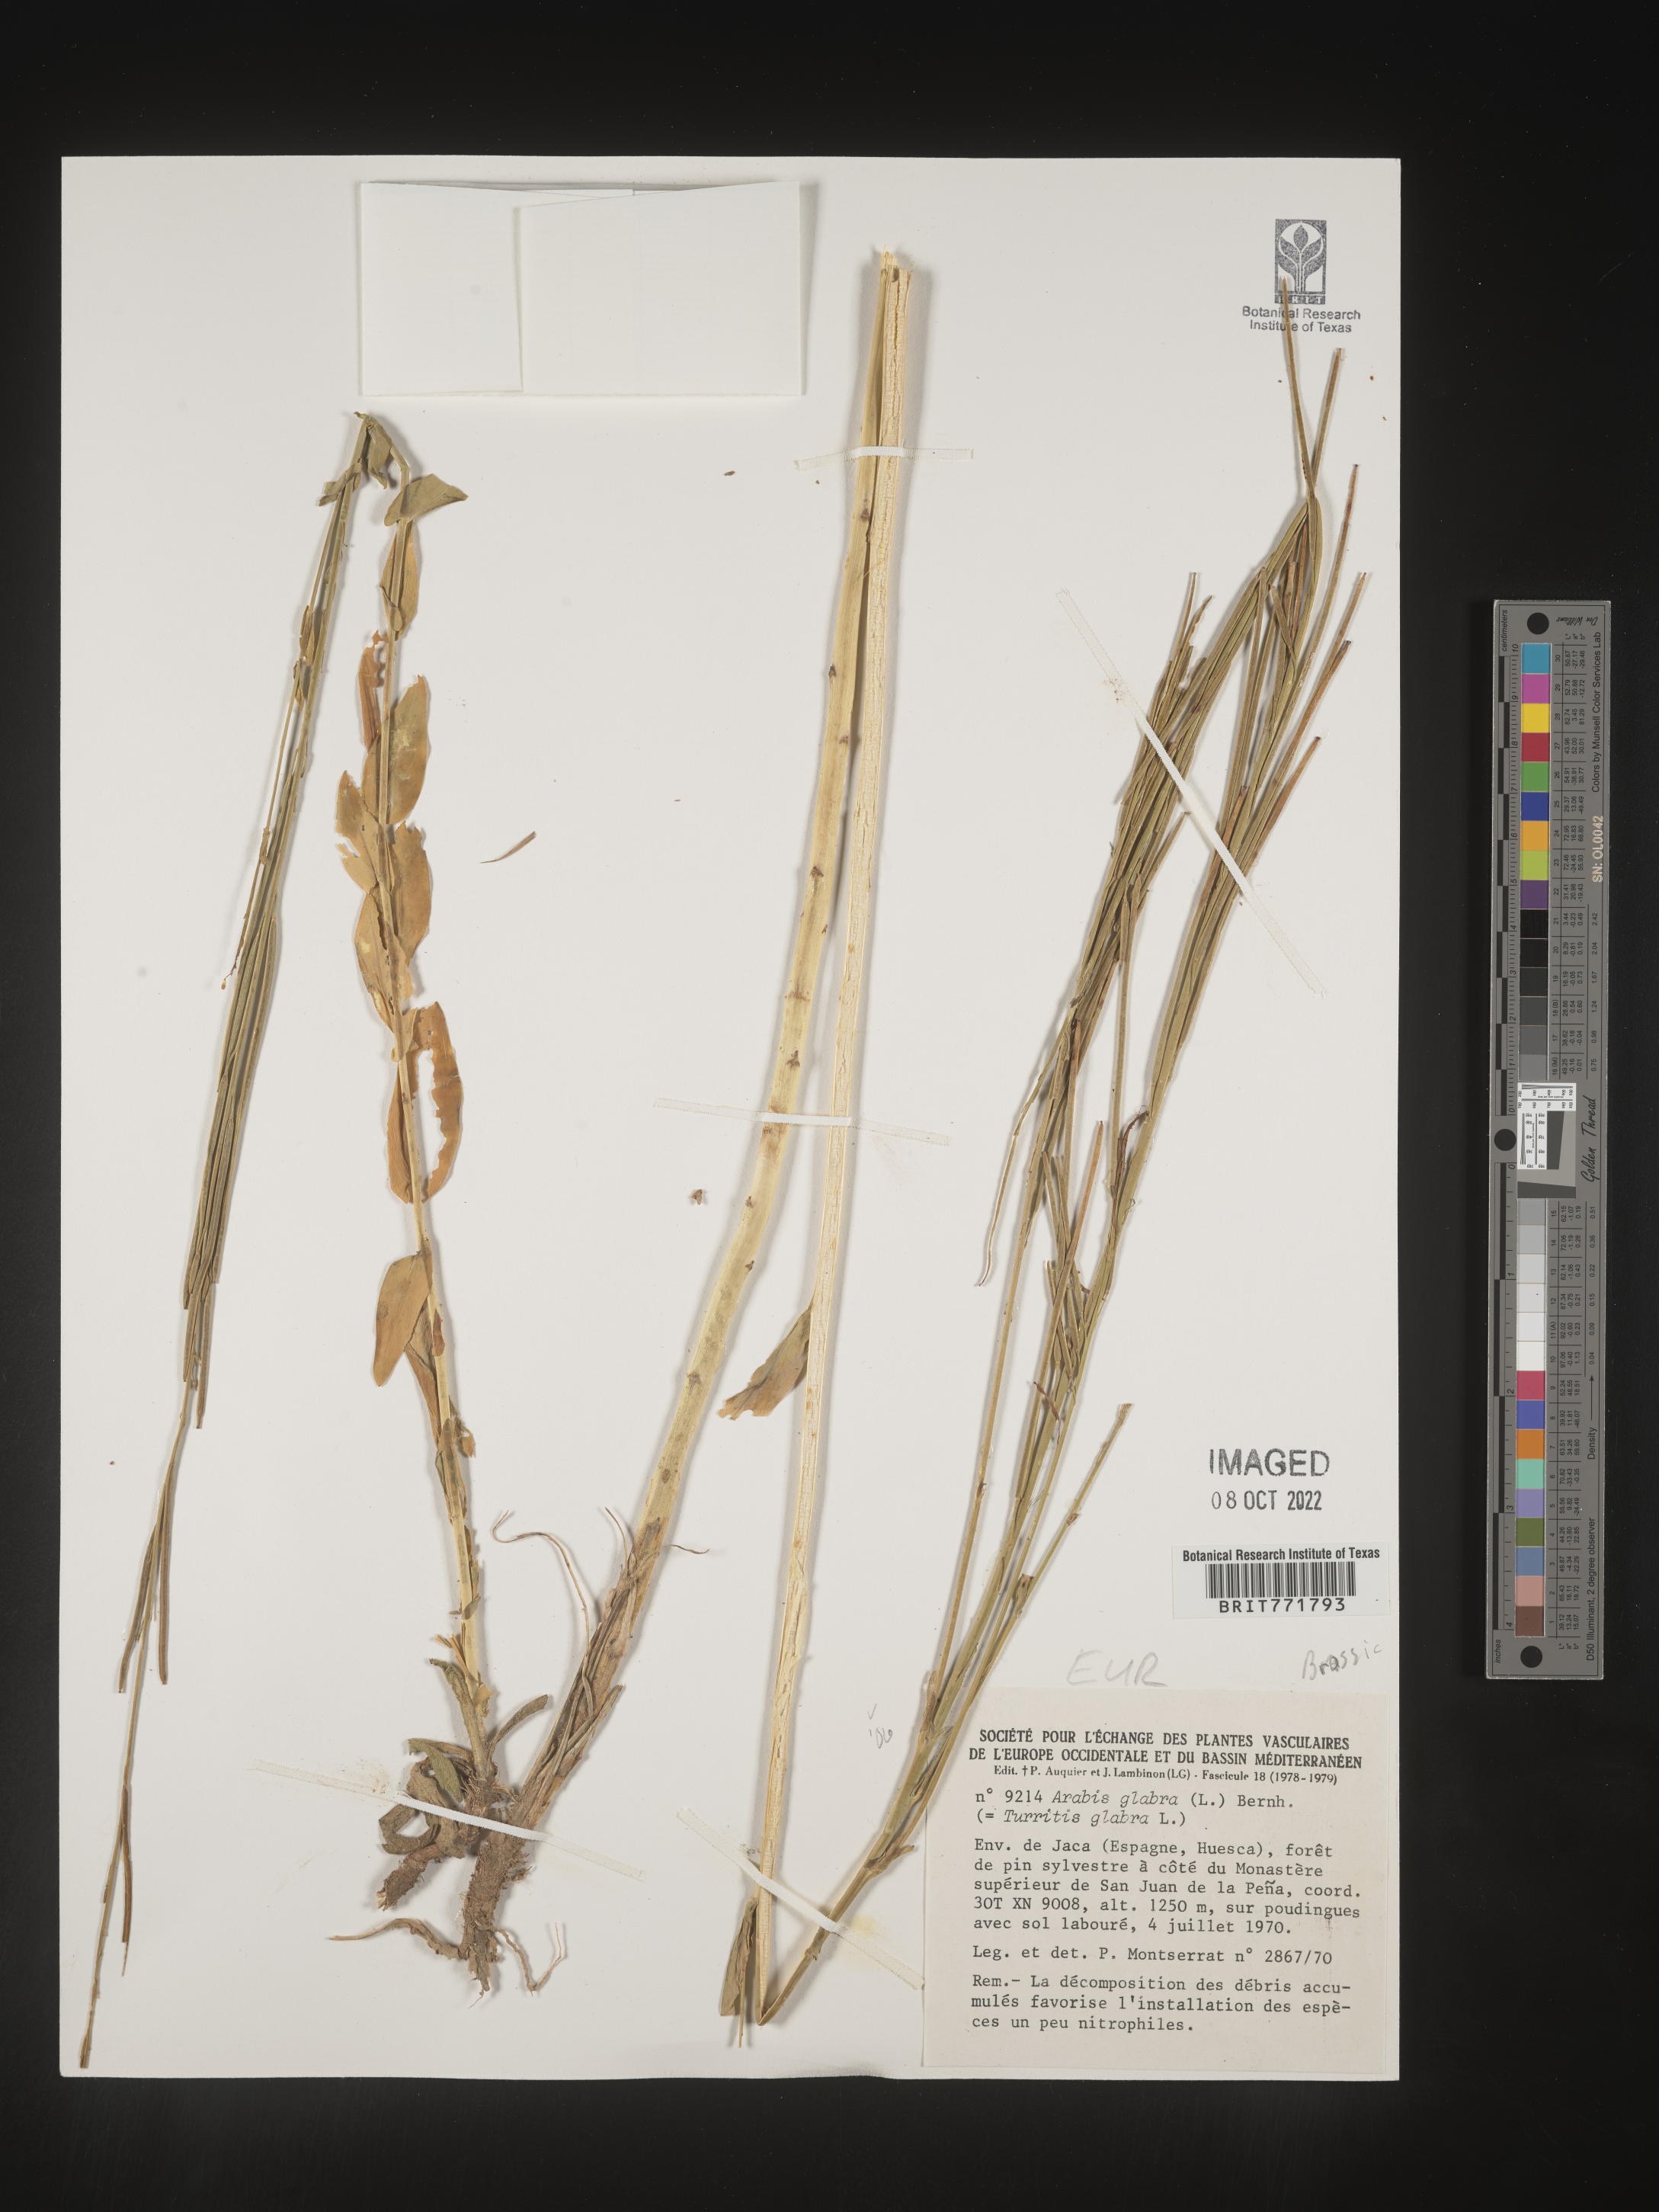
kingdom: Plantae
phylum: Tracheophyta
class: Magnoliopsida
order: Brassicales
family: Brassicaceae
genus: Arabis
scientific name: Arabis
